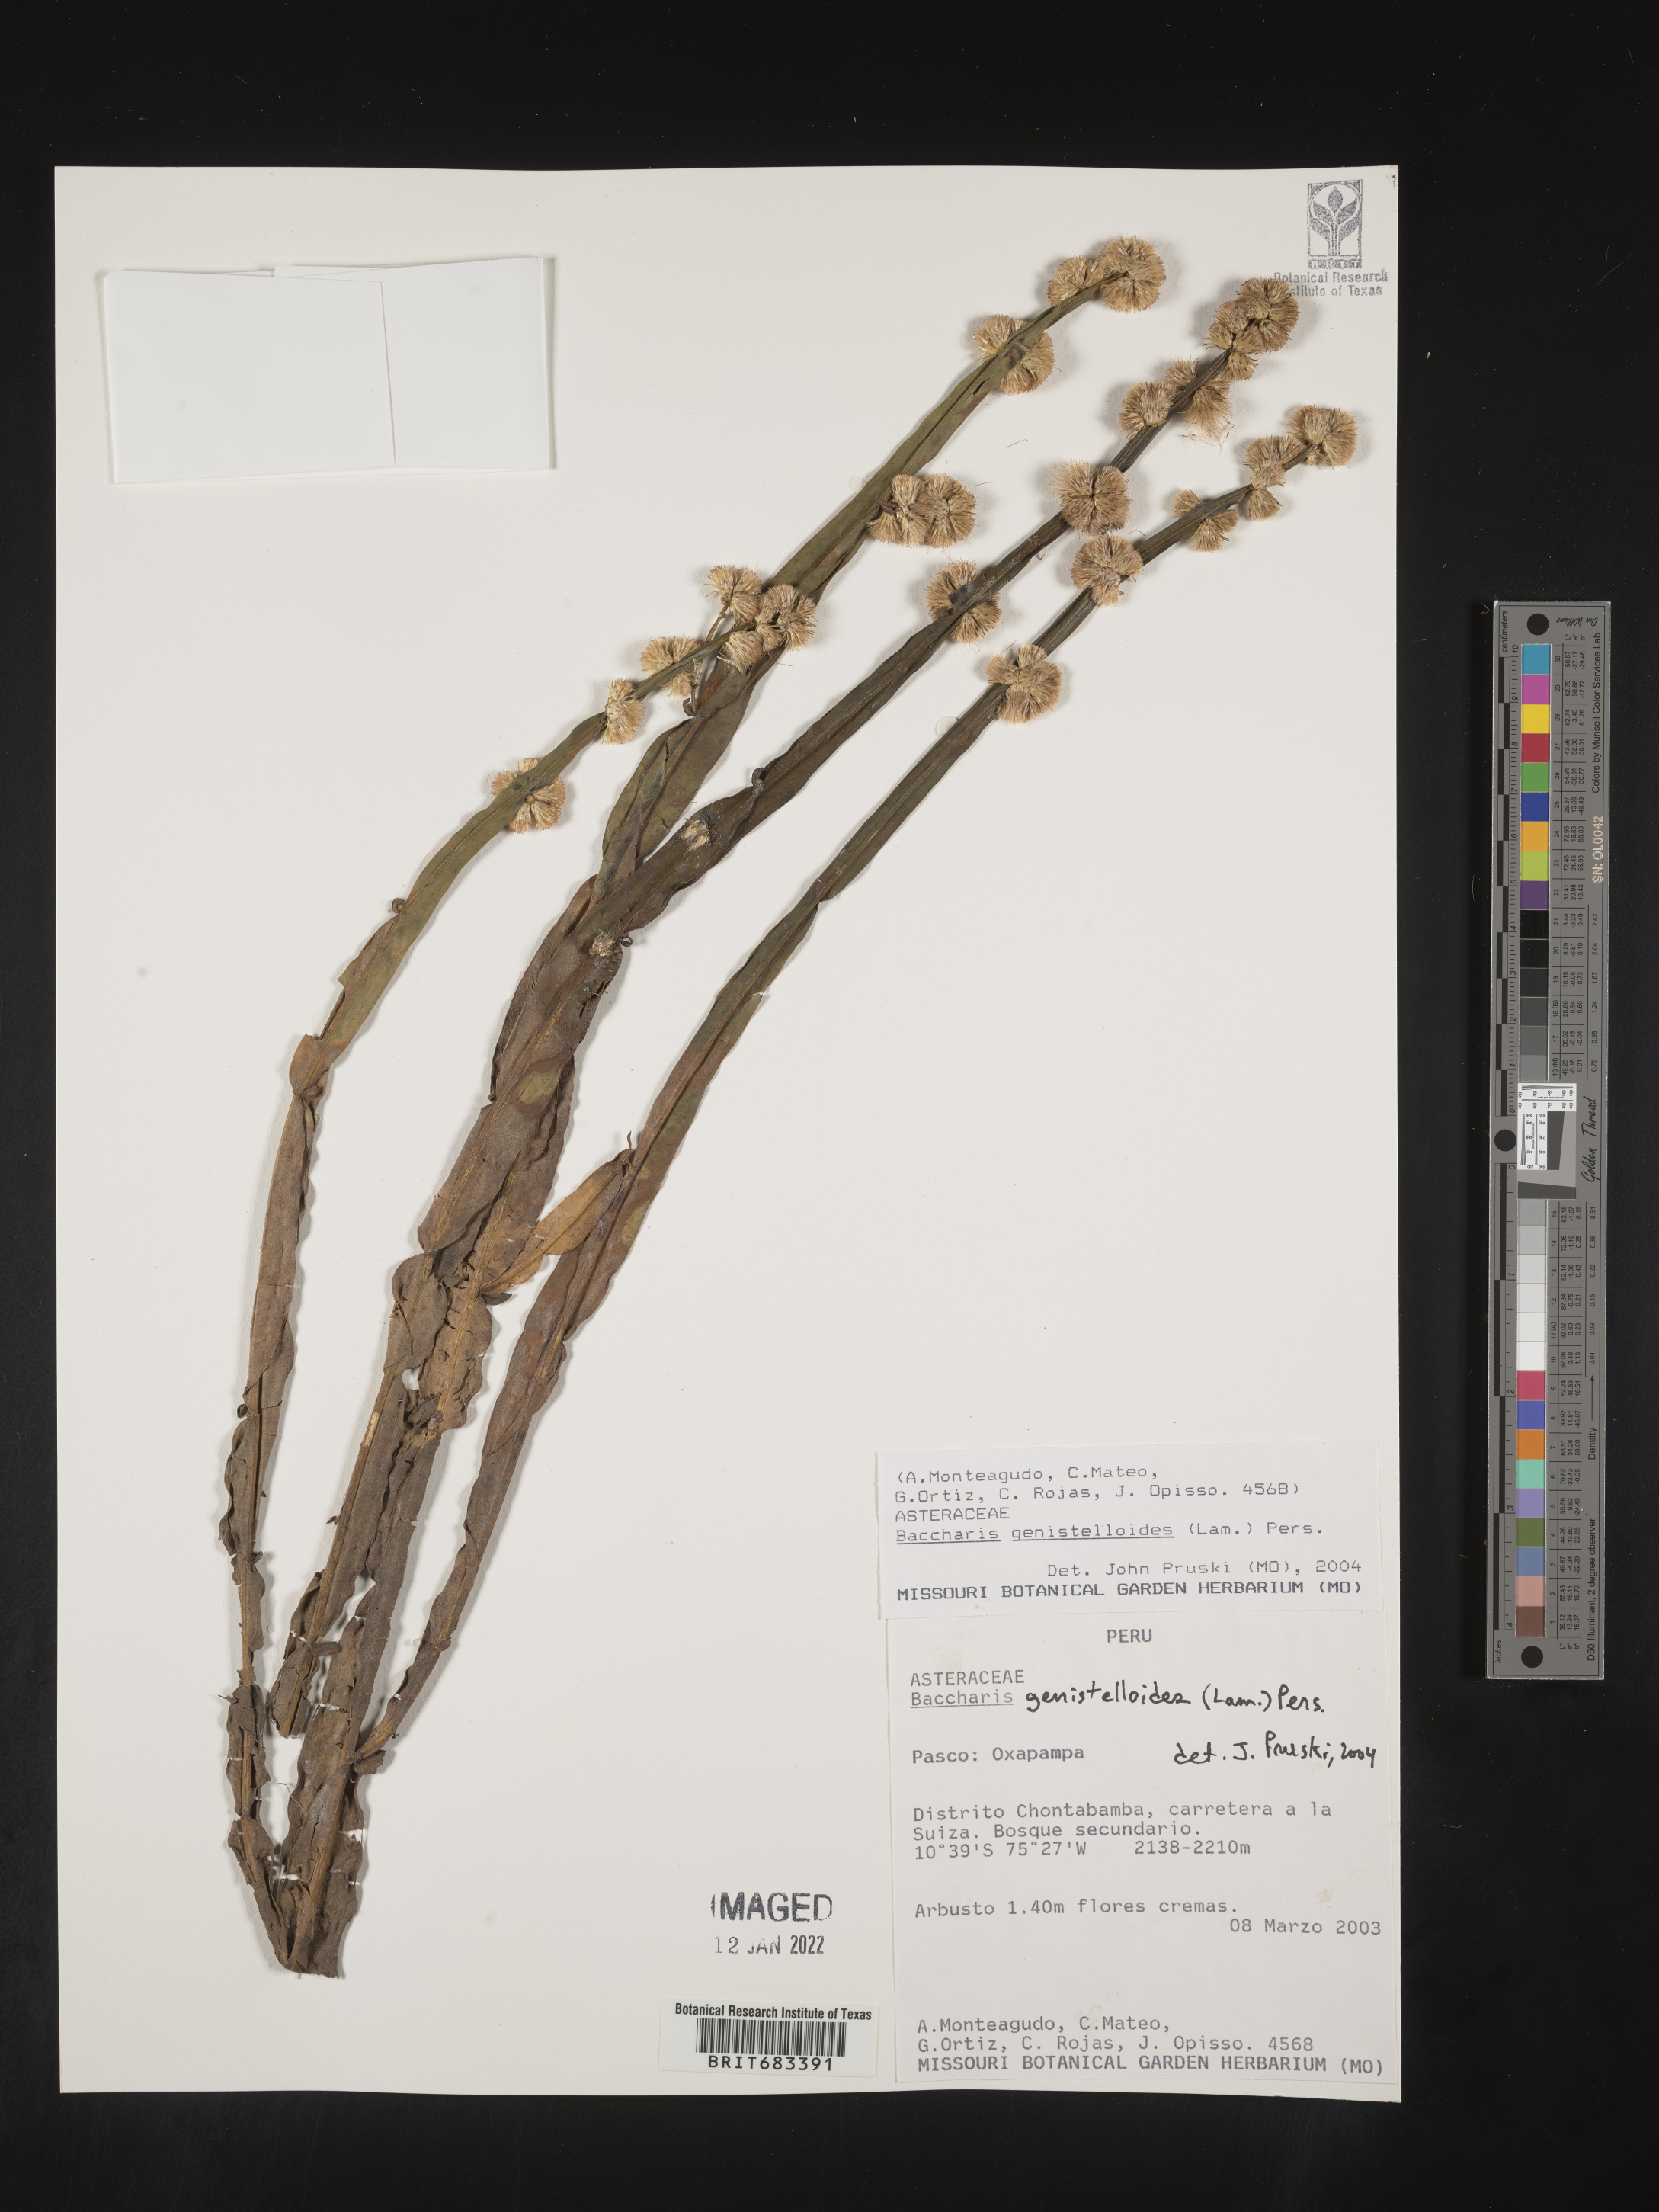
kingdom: Plantae
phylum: Tracheophyta
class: Magnoliopsida
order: Asterales
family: Asteraceae
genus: Baccharis
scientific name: Baccharis
